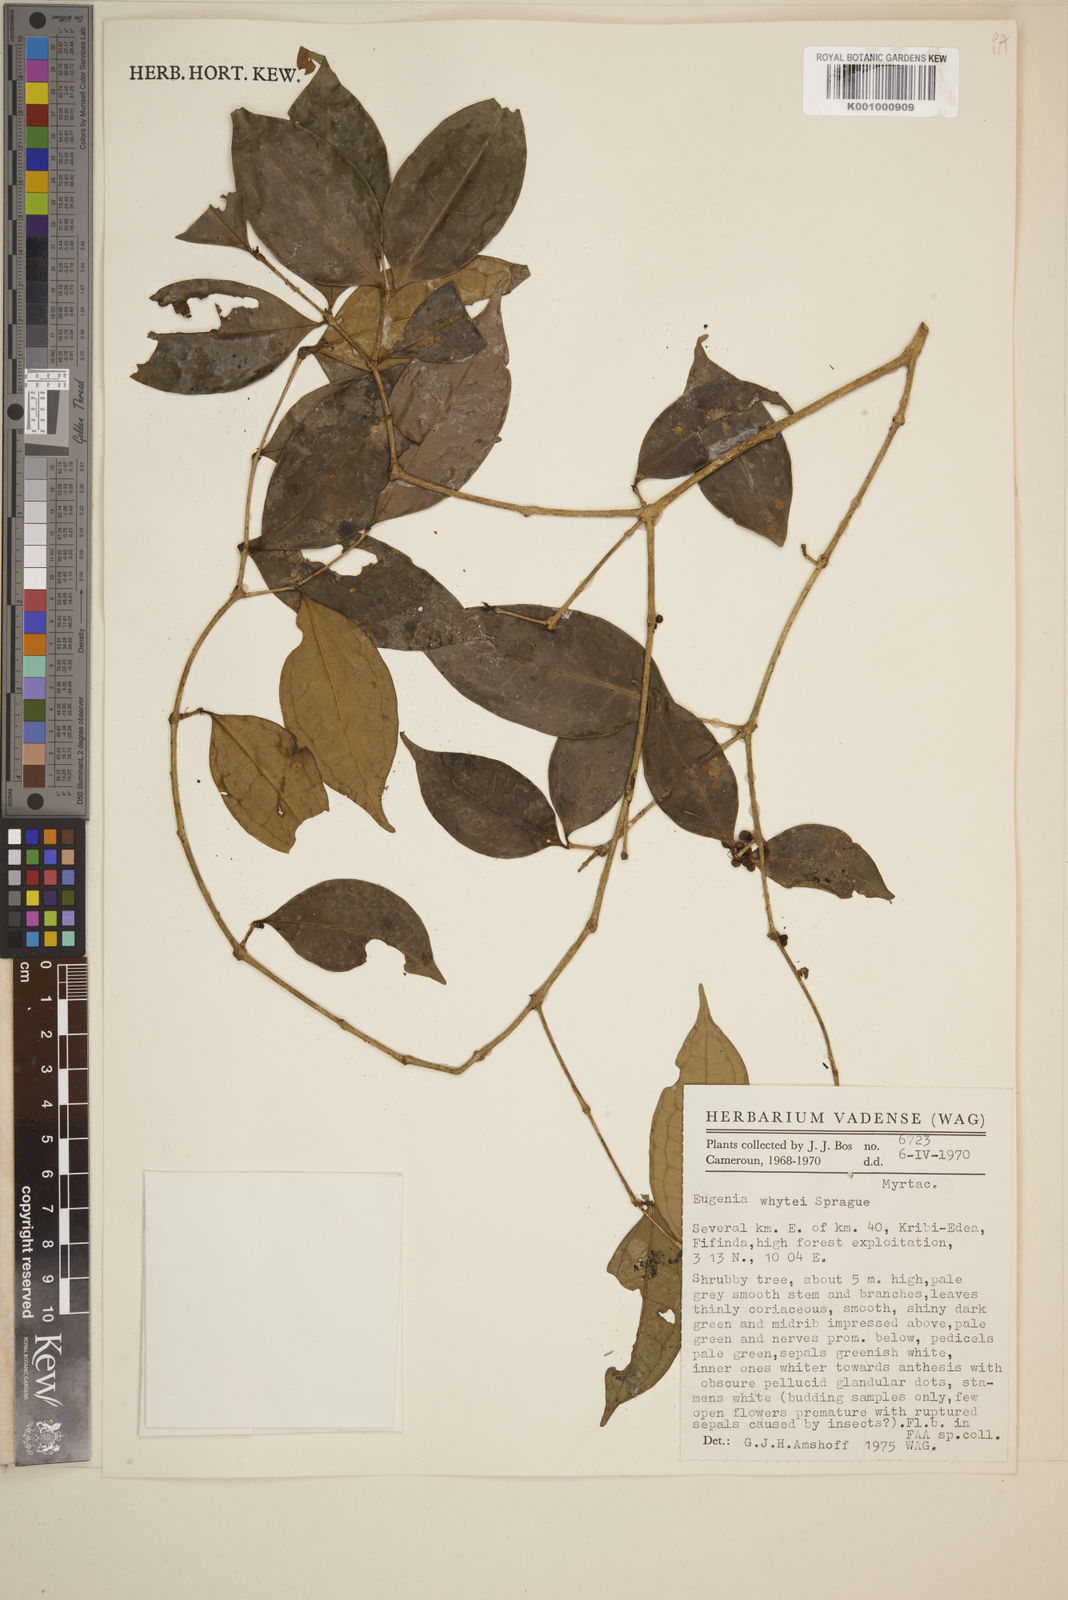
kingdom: Plantae
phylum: Tracheophyta
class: Magnoliopsida
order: Myrtales
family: Myrtaceae
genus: Eugenia
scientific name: Eugenia whytei
